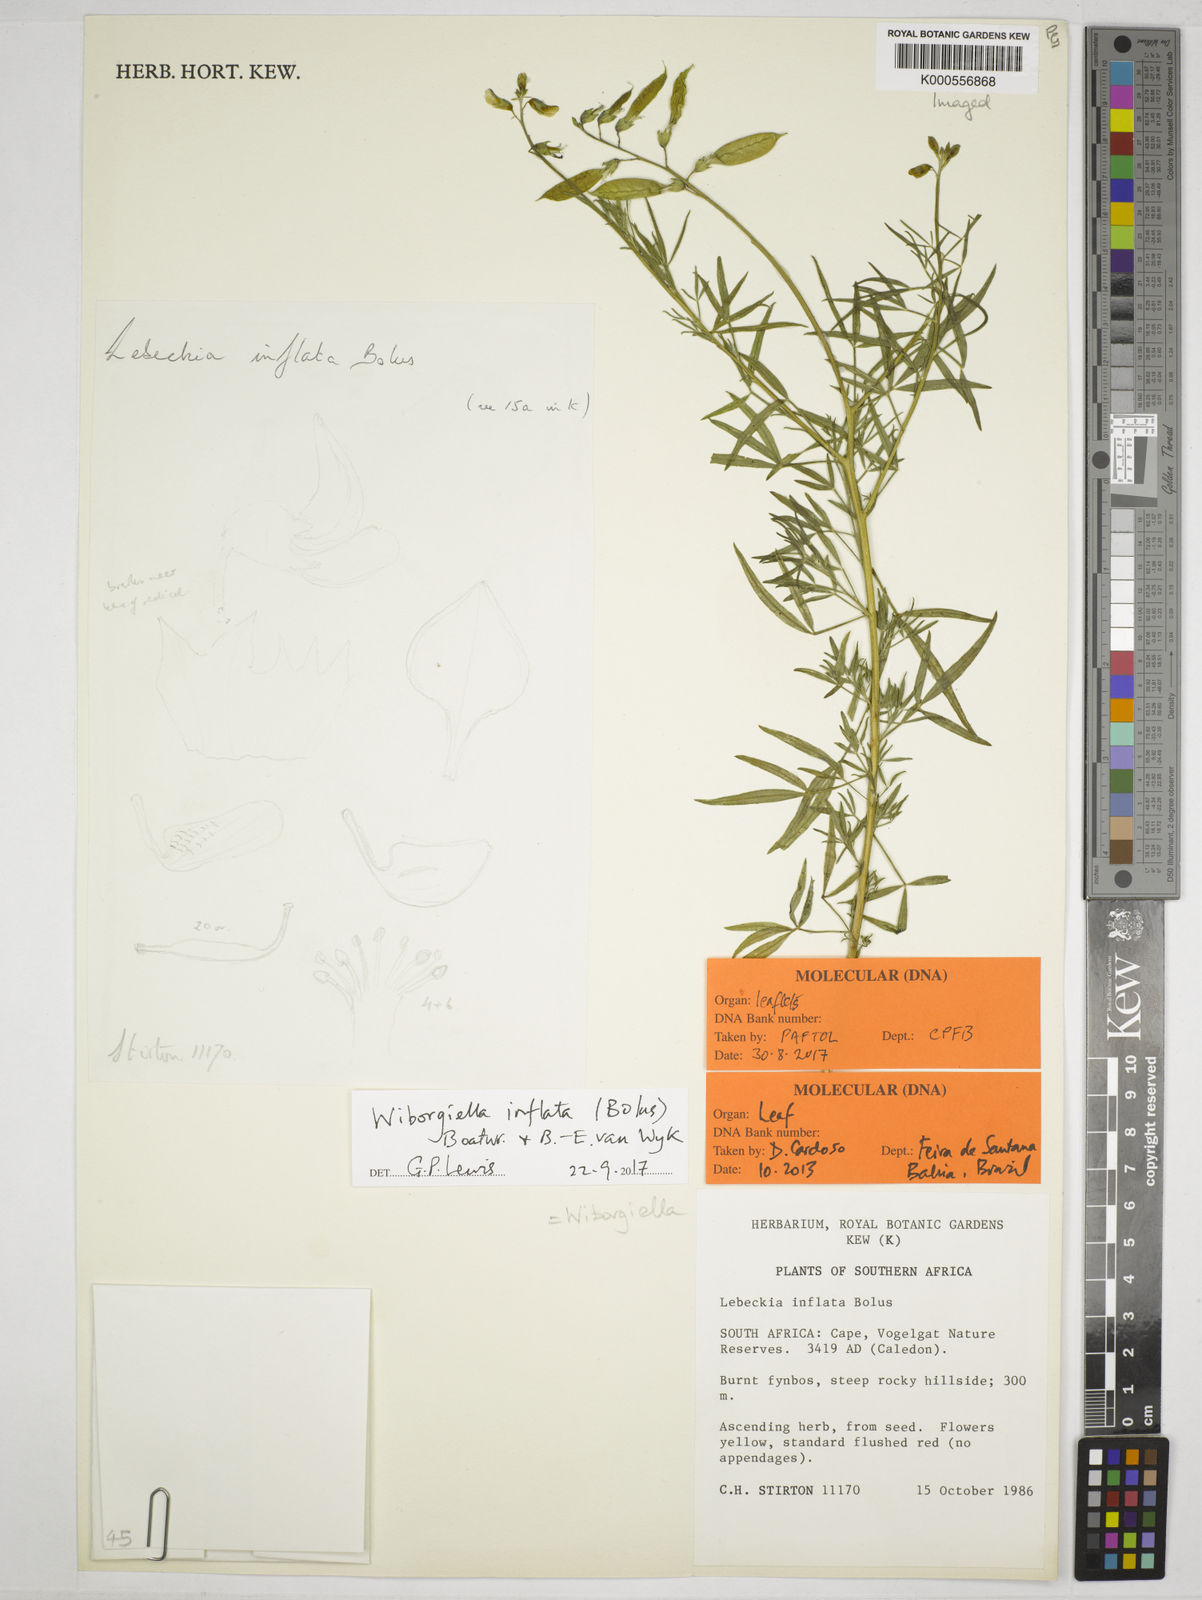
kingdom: Plantae
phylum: Tracheophyta
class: Magnoliopsida
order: Fabales
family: Fabaceae
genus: Wiborgiella
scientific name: Wiborgiella inflata
